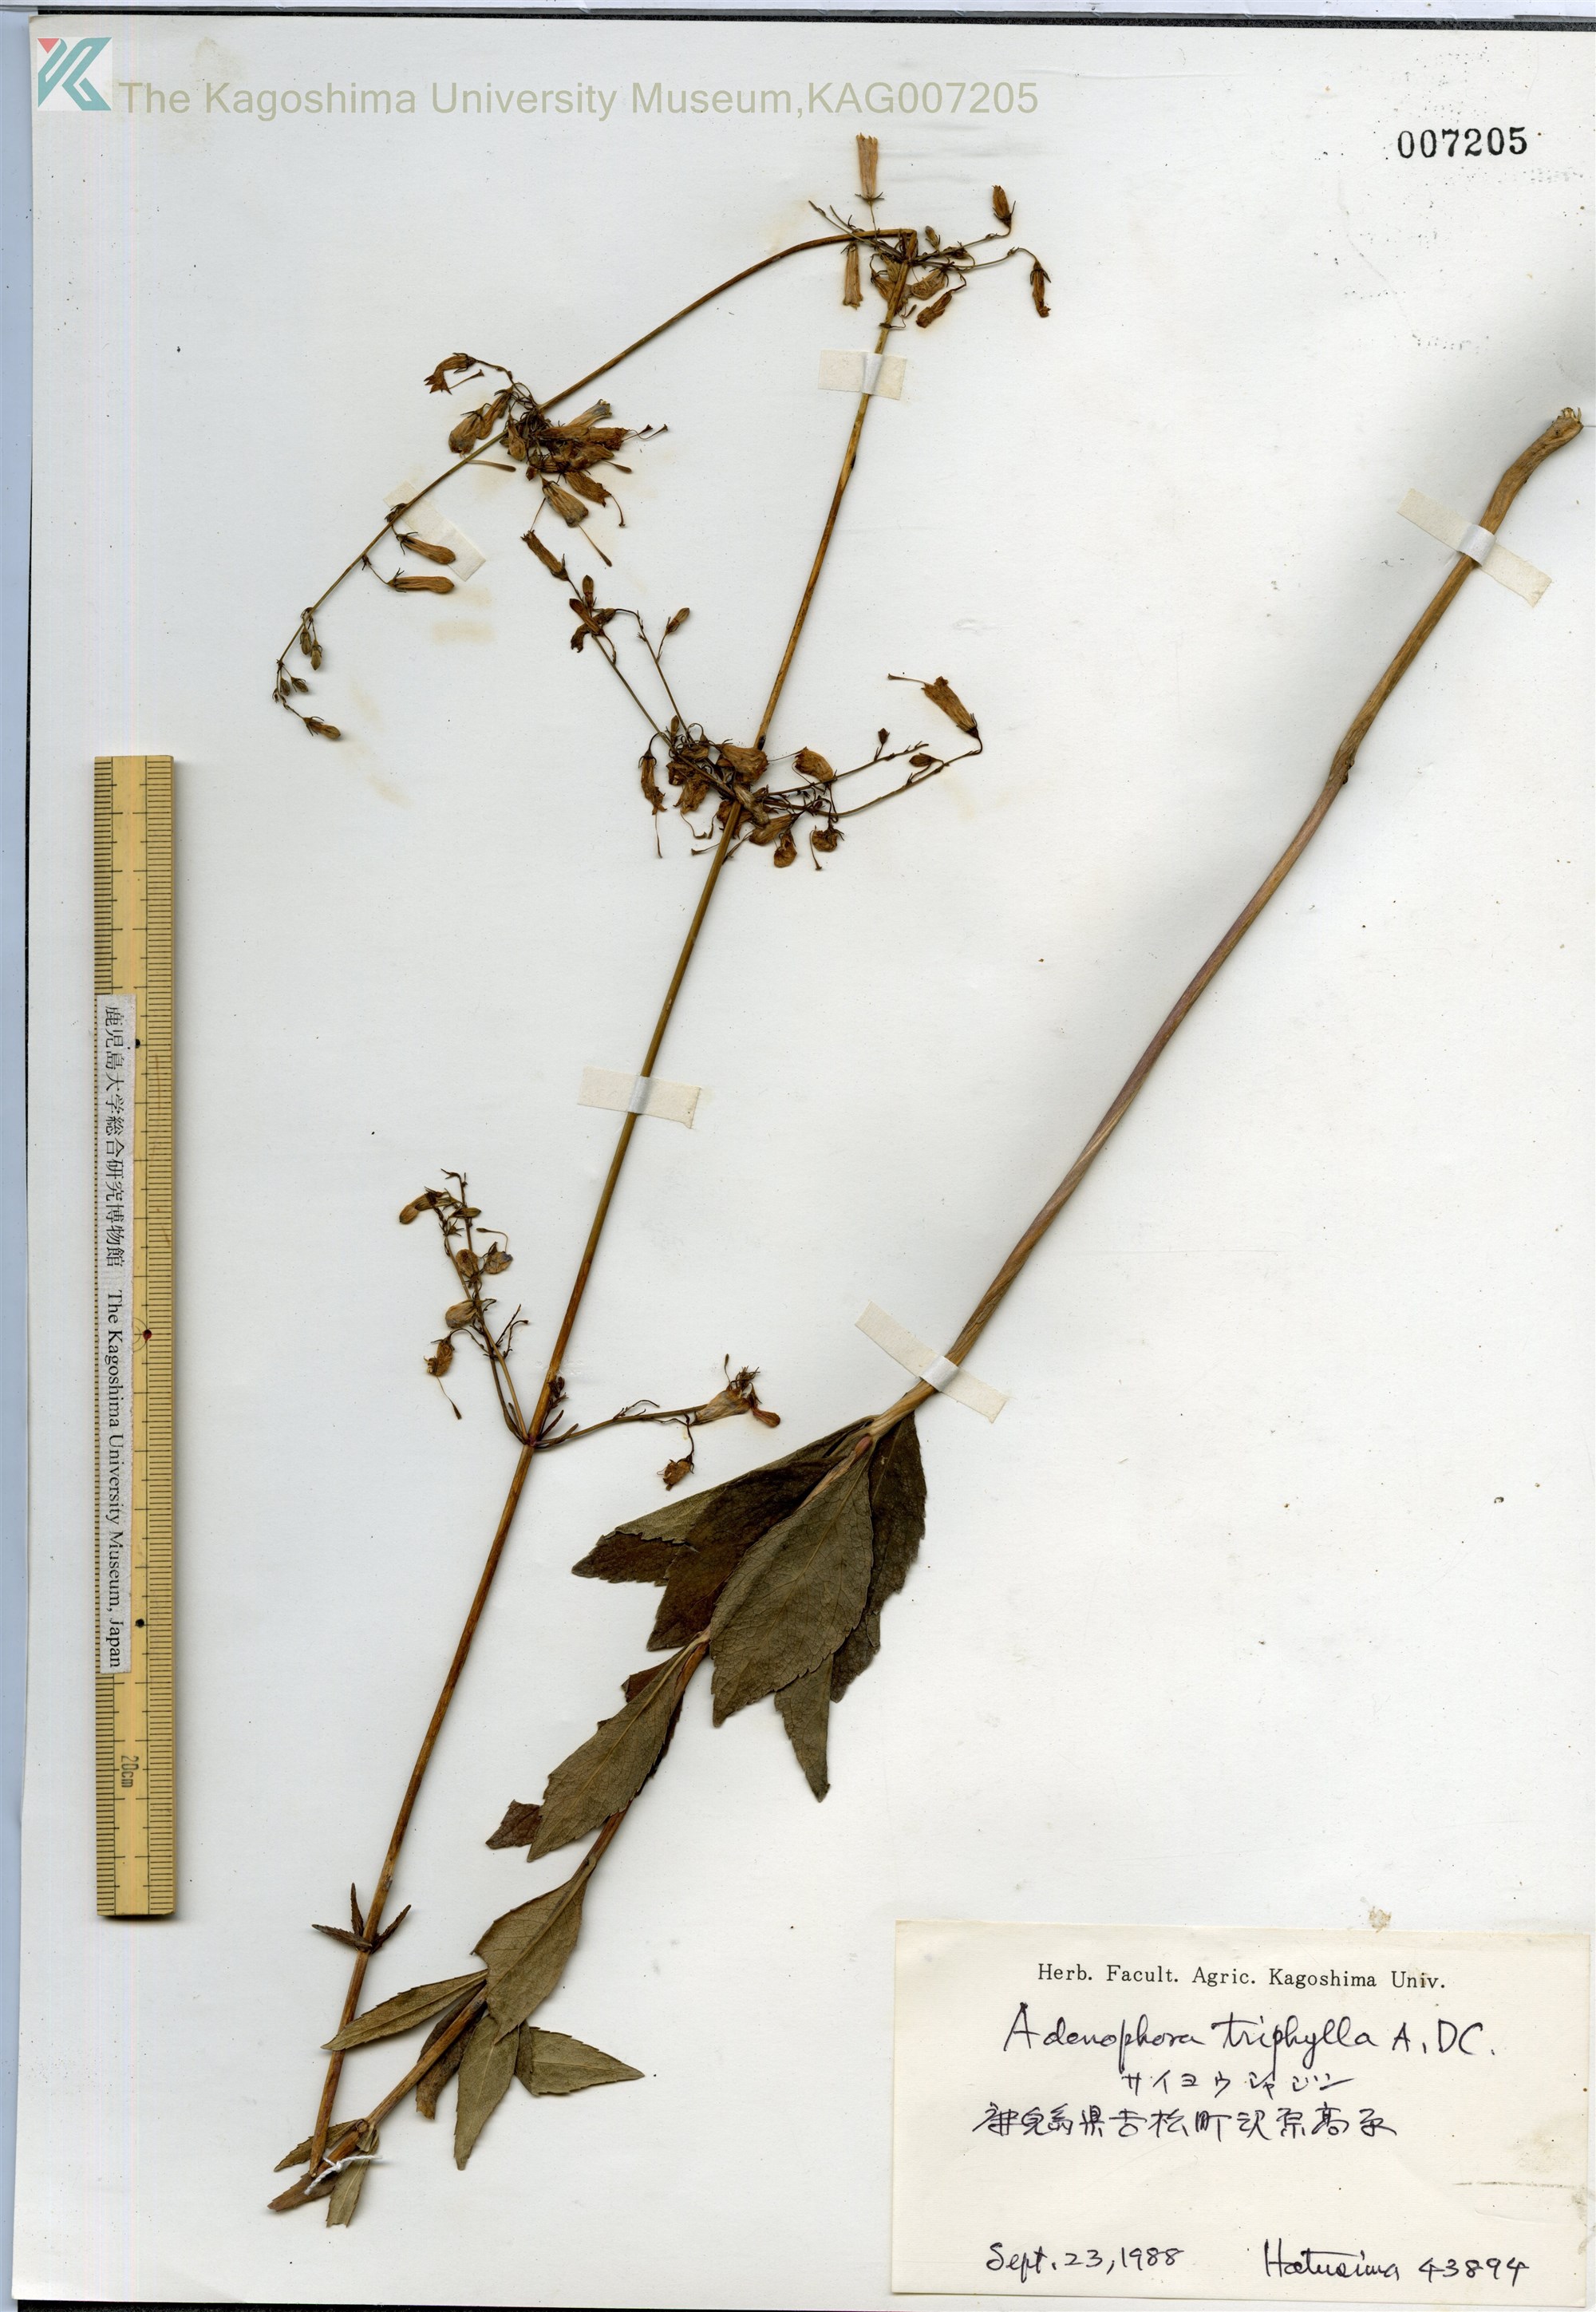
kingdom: Plantae
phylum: Tracheophyta
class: Magnoliopsida
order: Asterales
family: Campanulaceae
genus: Adenophora
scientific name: Adenophora triphylla
